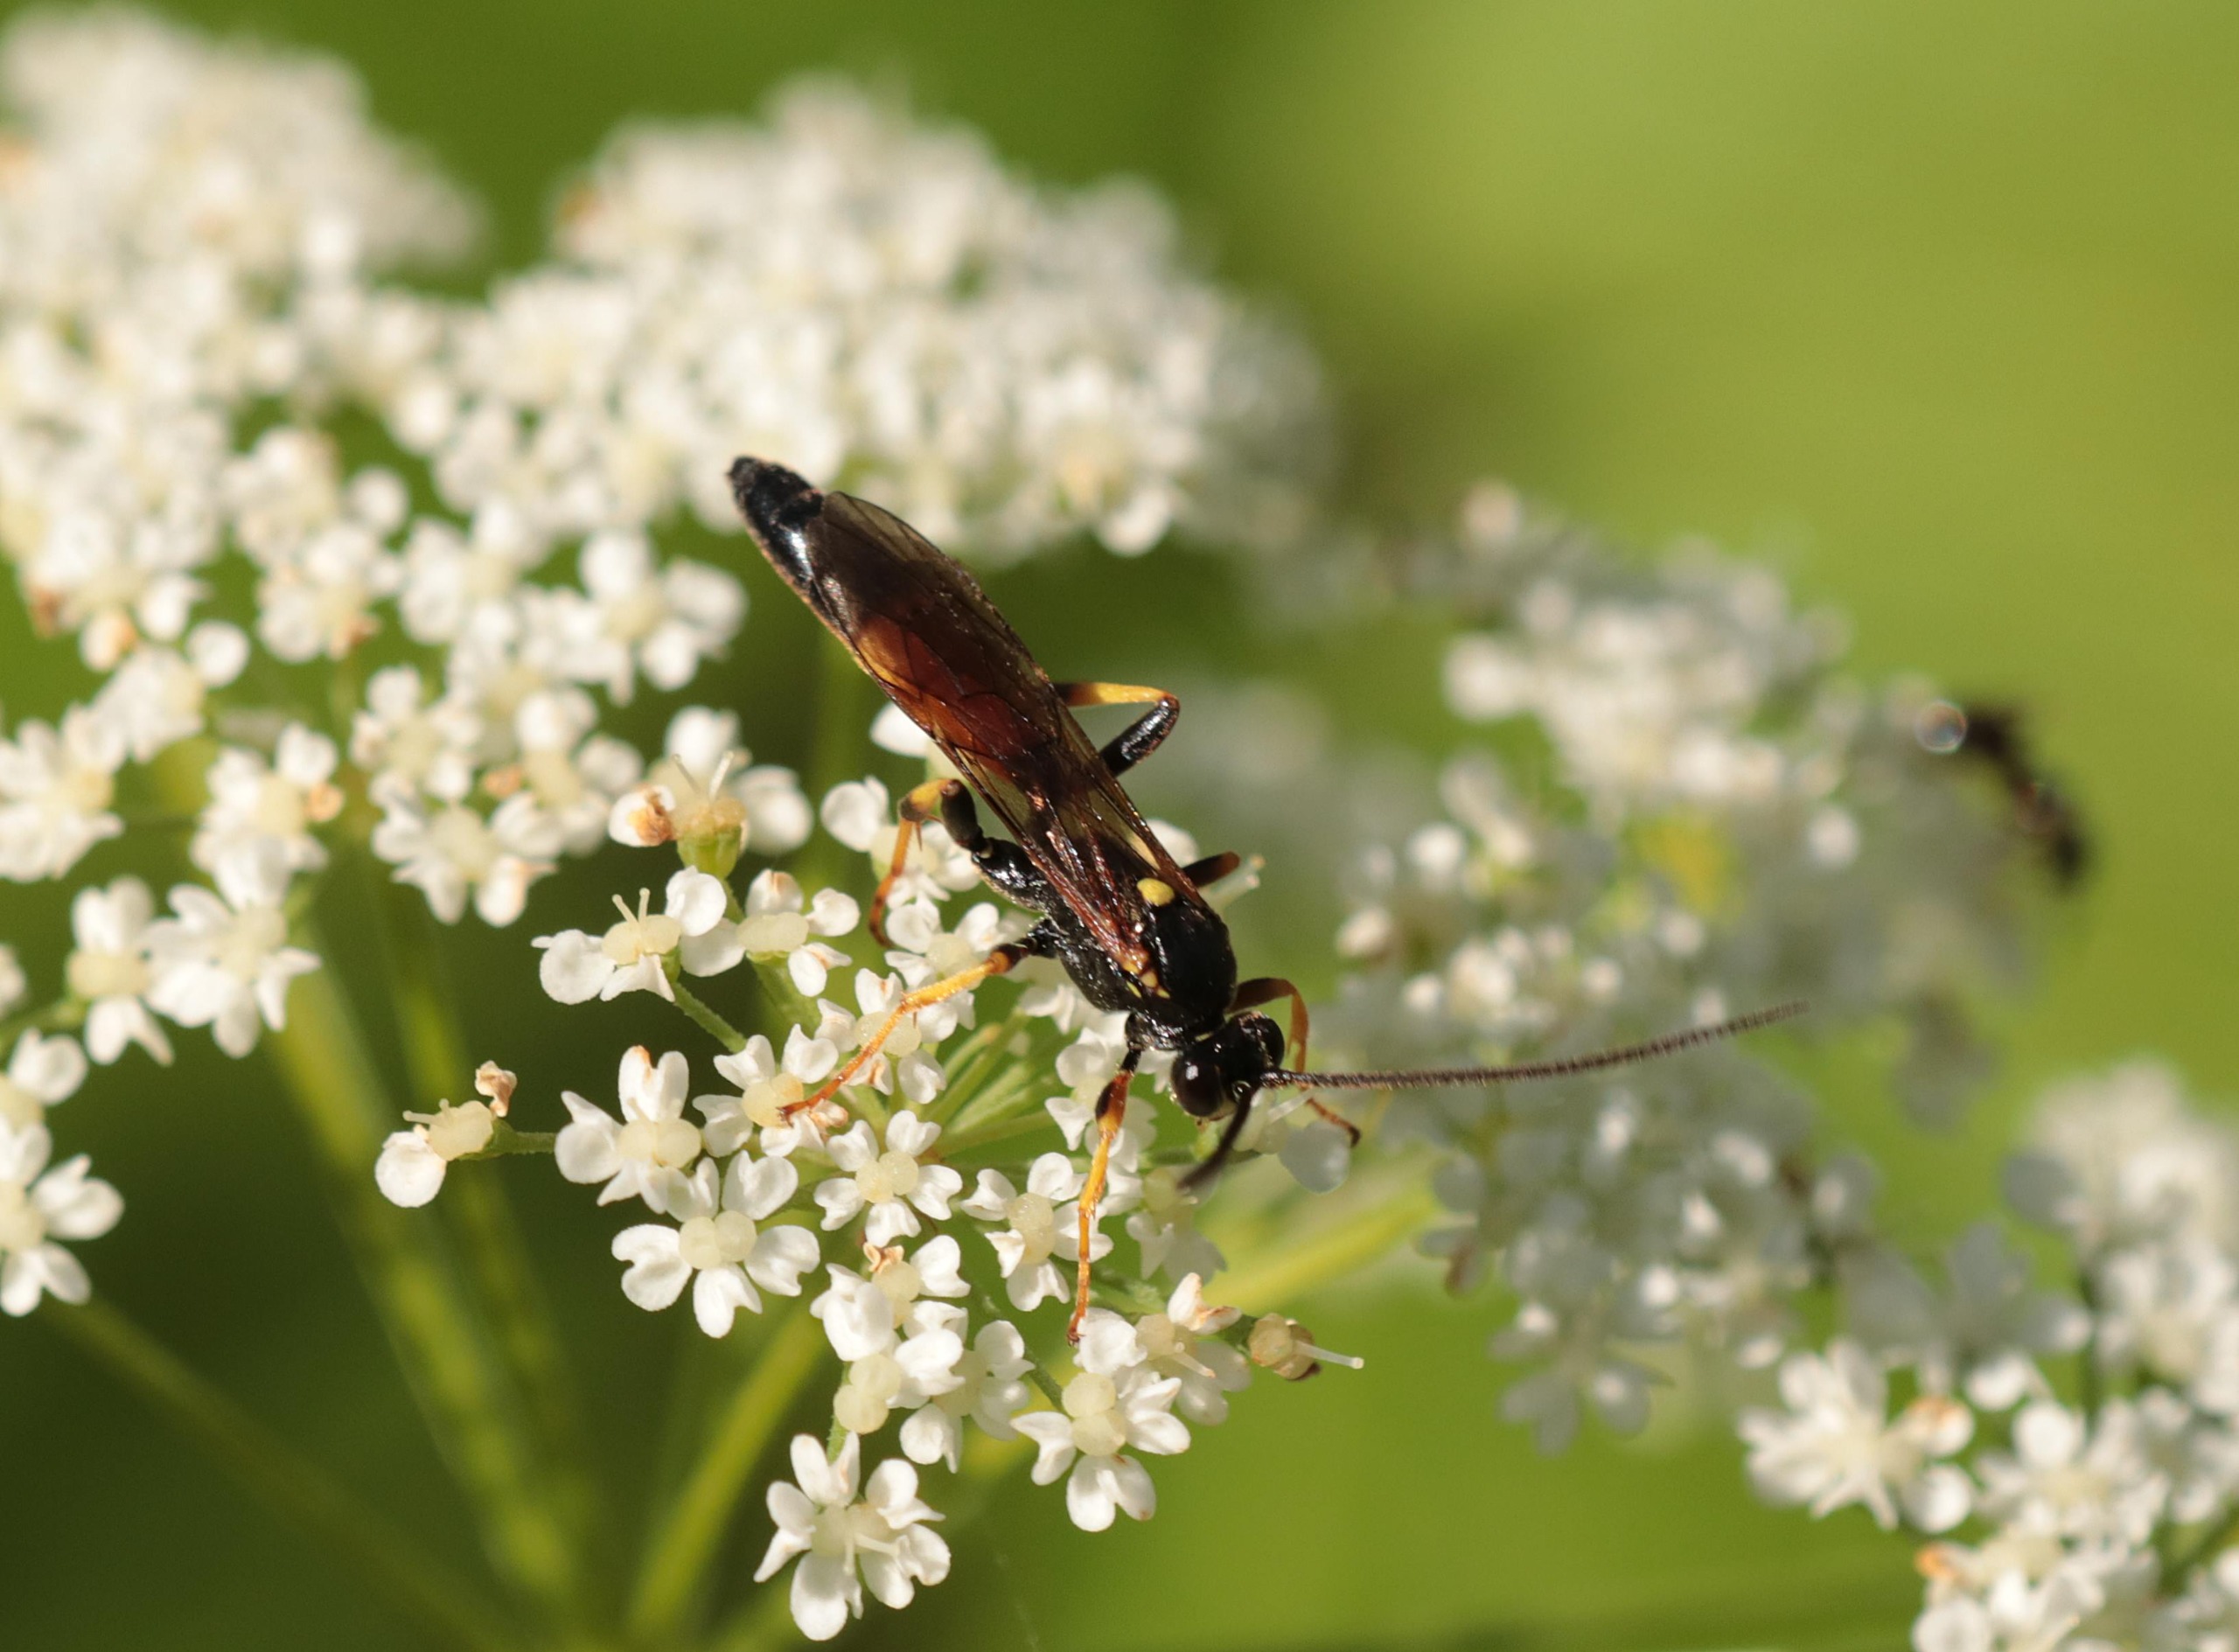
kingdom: Animalia
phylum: Arthropoda
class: Insecta
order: Hymenoptera
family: Ichneumonidae
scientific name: Ichneumonidae
